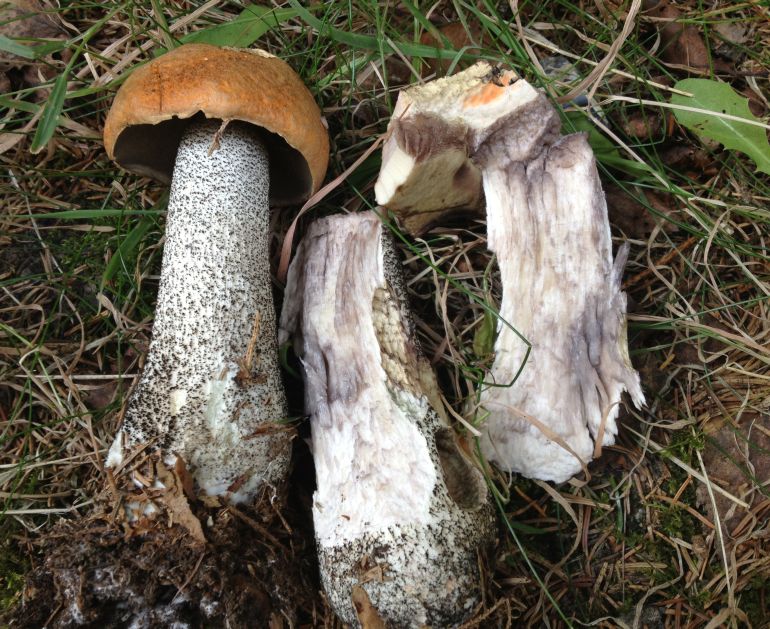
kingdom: Fungi
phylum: Basidiomycota
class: Agaricomycetes
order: Boletales
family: Boletaceae
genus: Leccinum
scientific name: Leccinum versipelle
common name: orange skælrørhat
